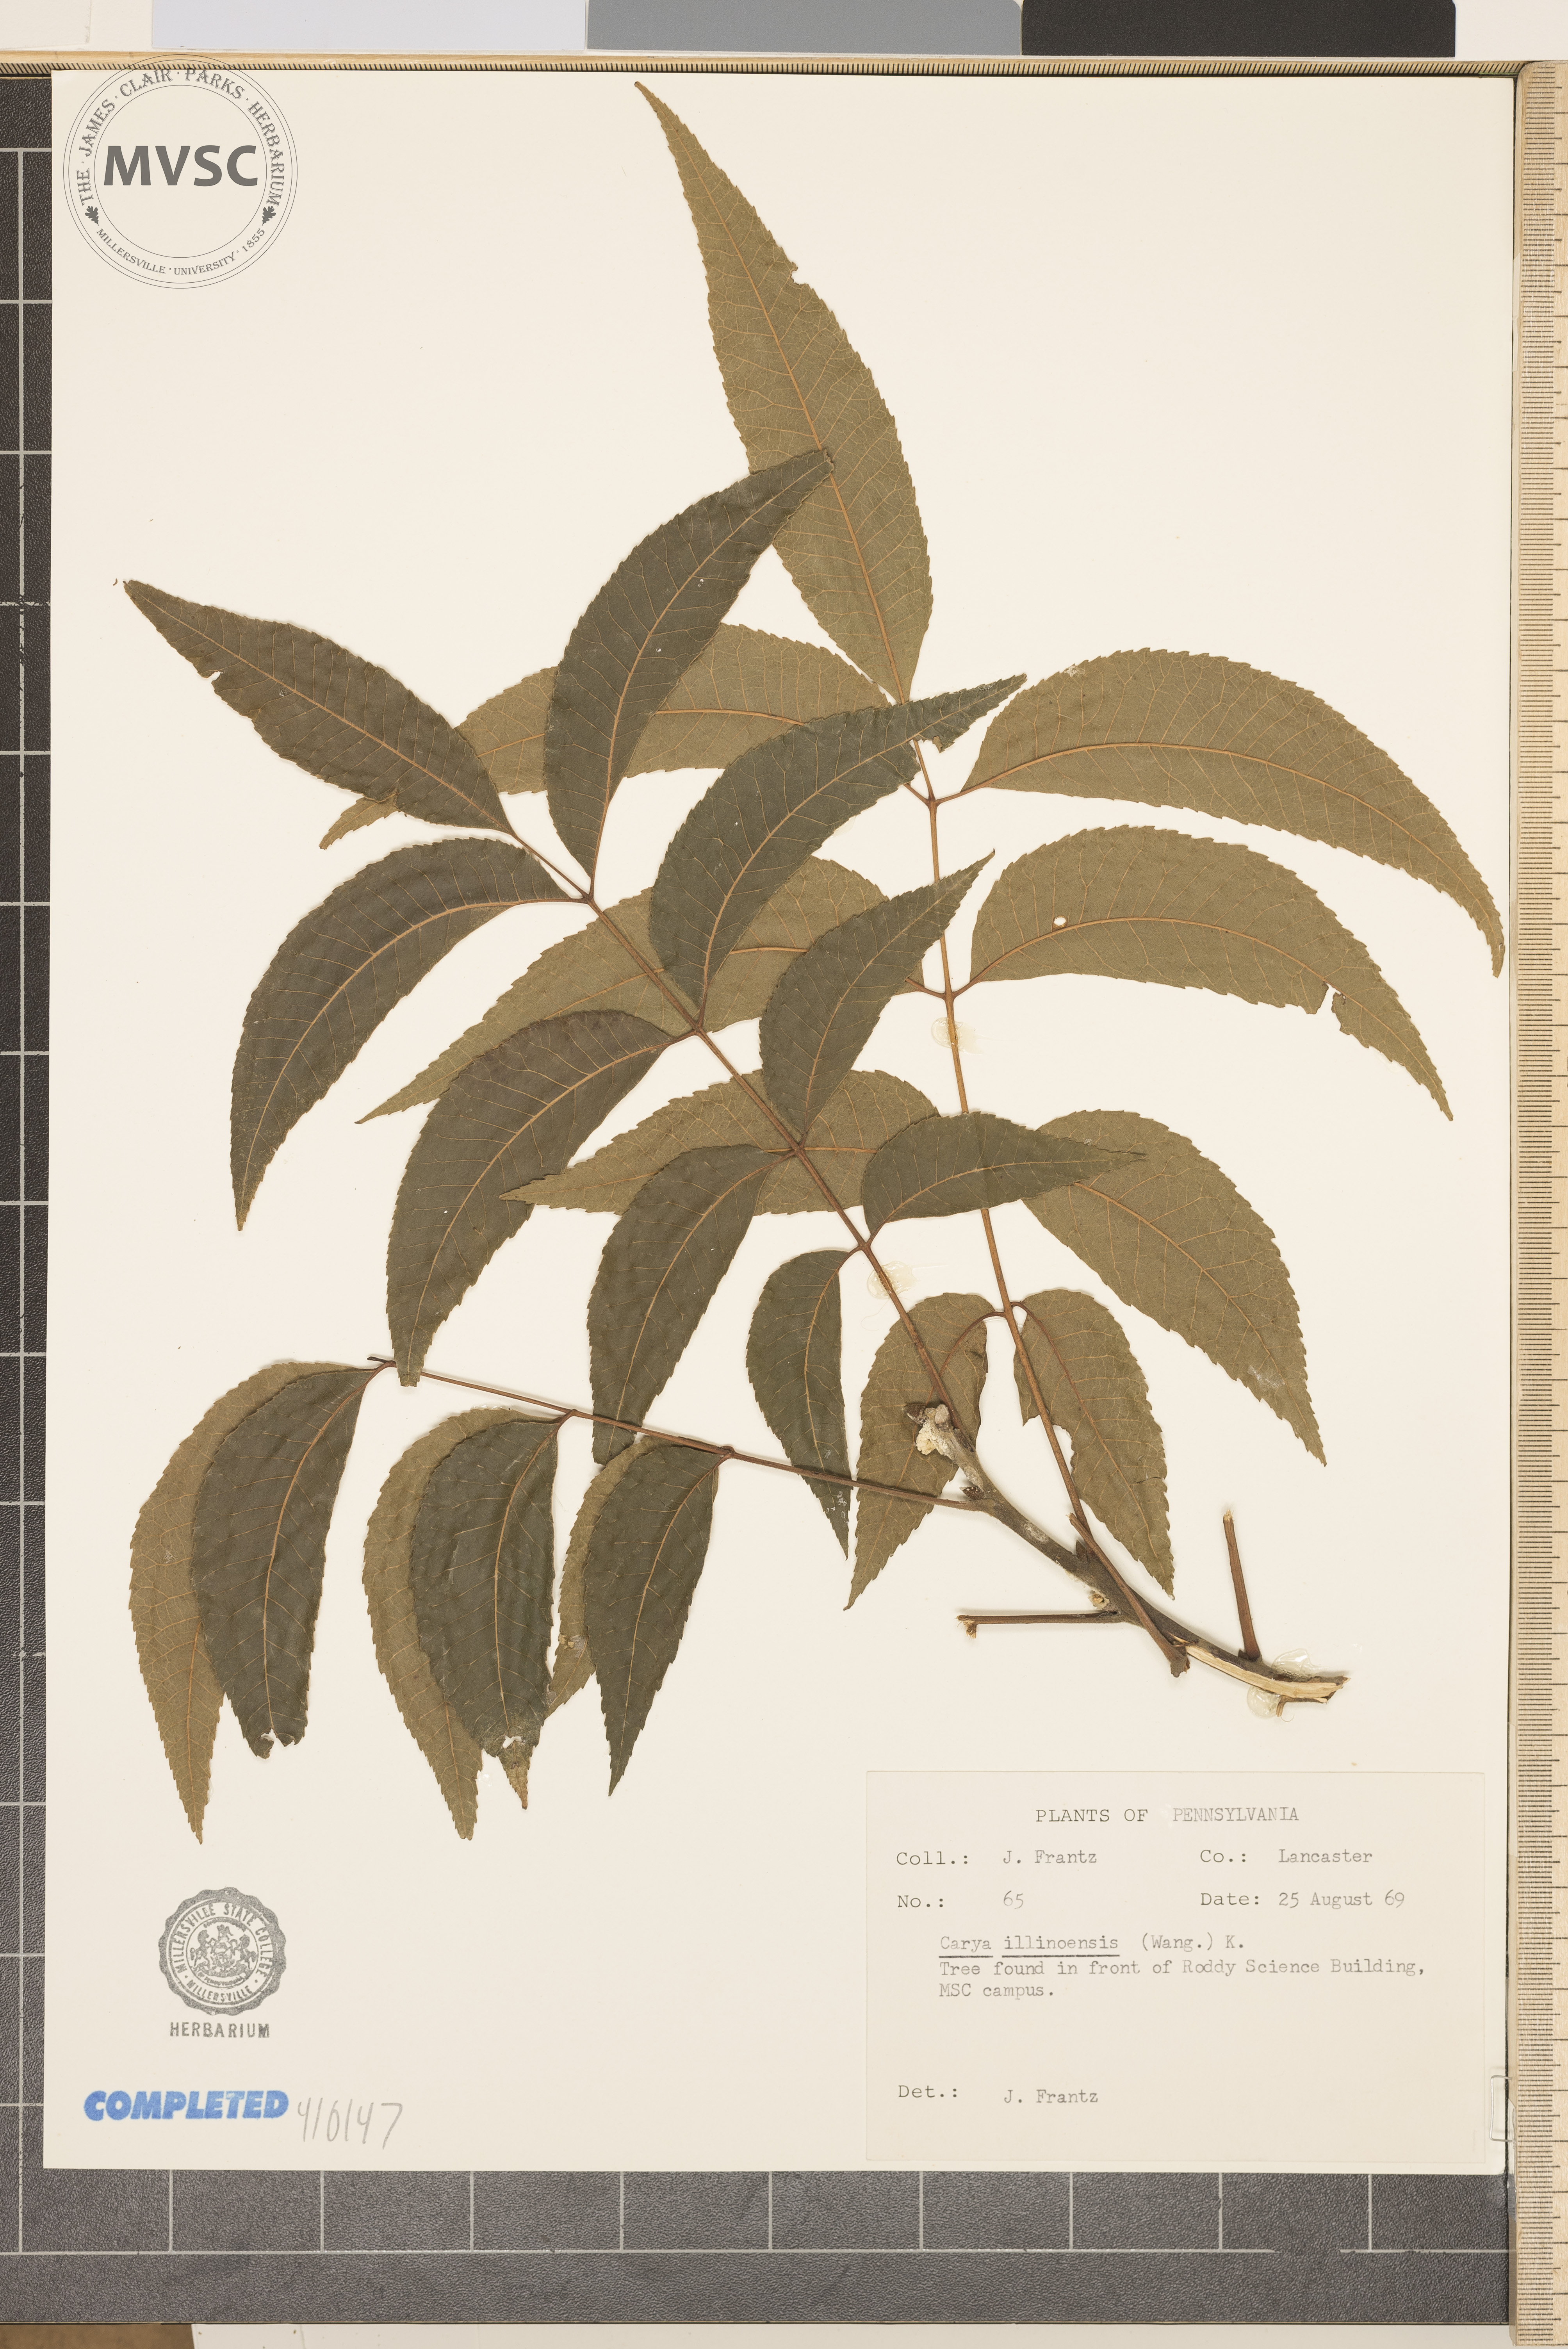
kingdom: Plantae
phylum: Tracheophyta
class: Magnoliopsida
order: Fagales
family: Juglandaceae
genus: Carya
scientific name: Carya illinoinensis
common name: Pecan
